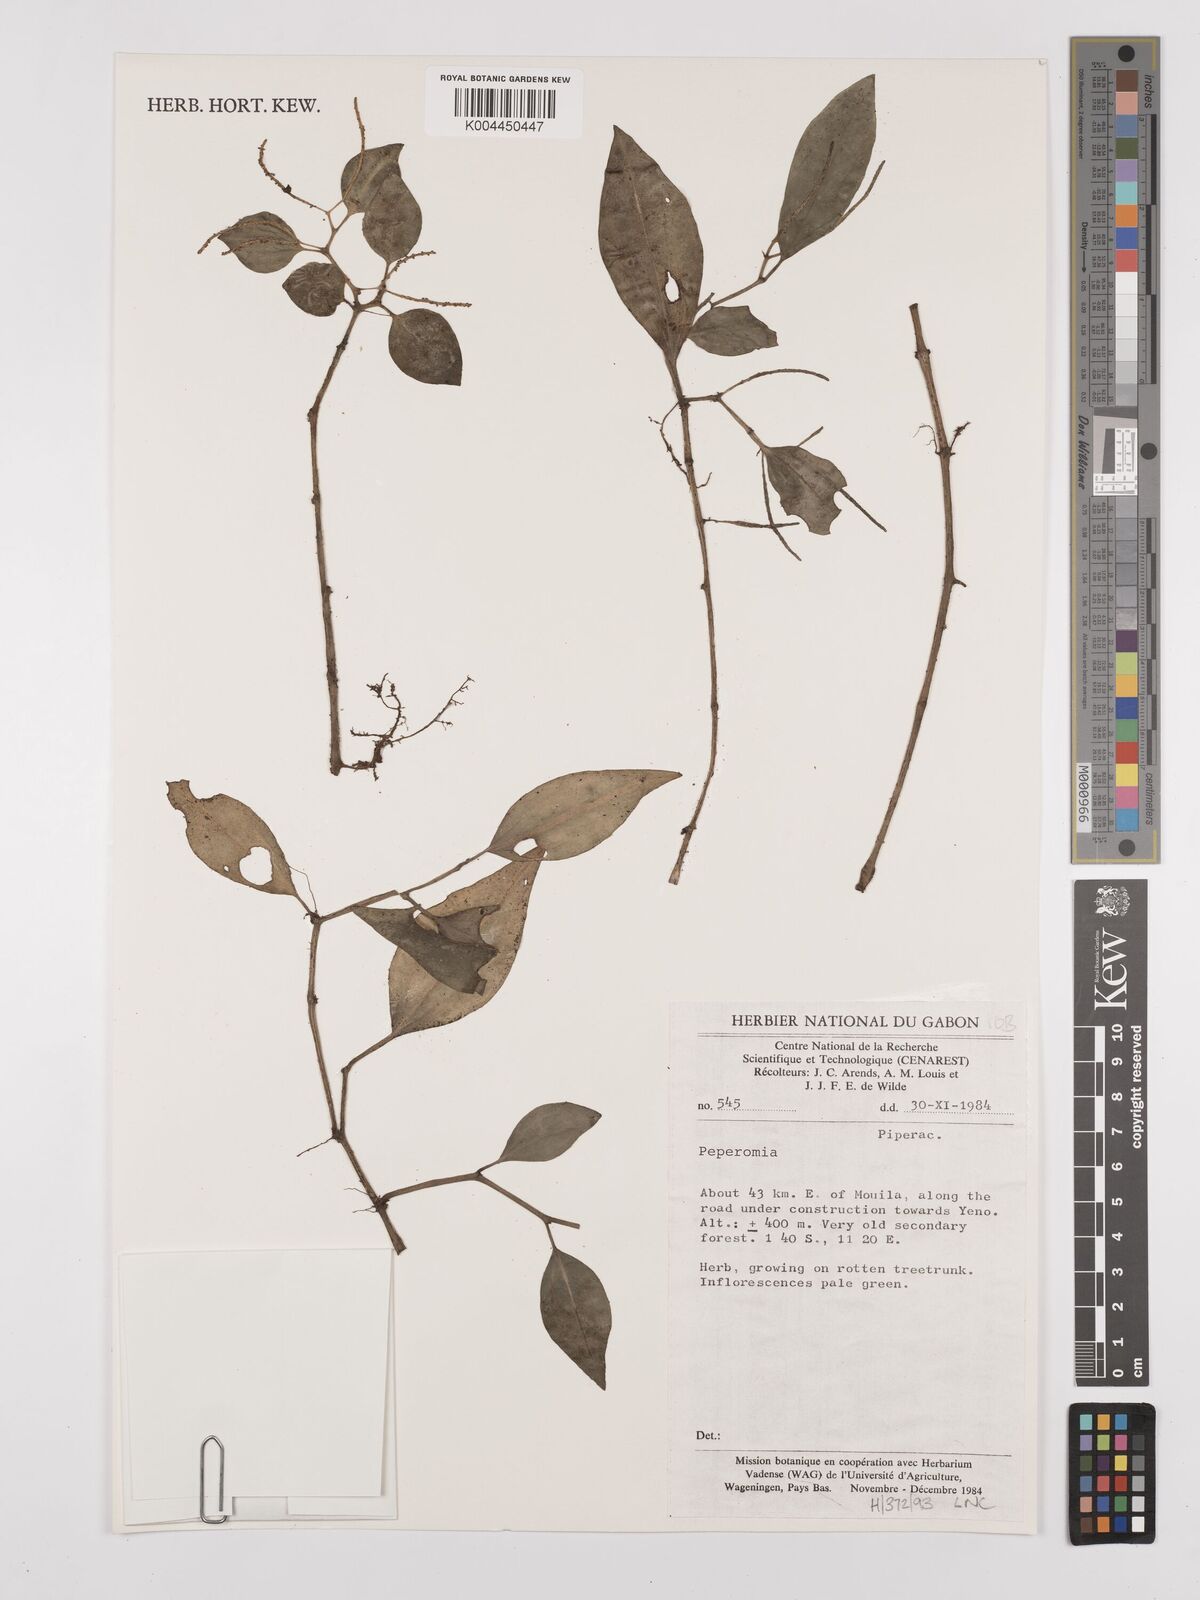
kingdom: Plantae
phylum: Tracheophyta
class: Magnoliopsida
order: Piperales
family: Piperaceae
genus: Peperomia
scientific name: Peperomia
